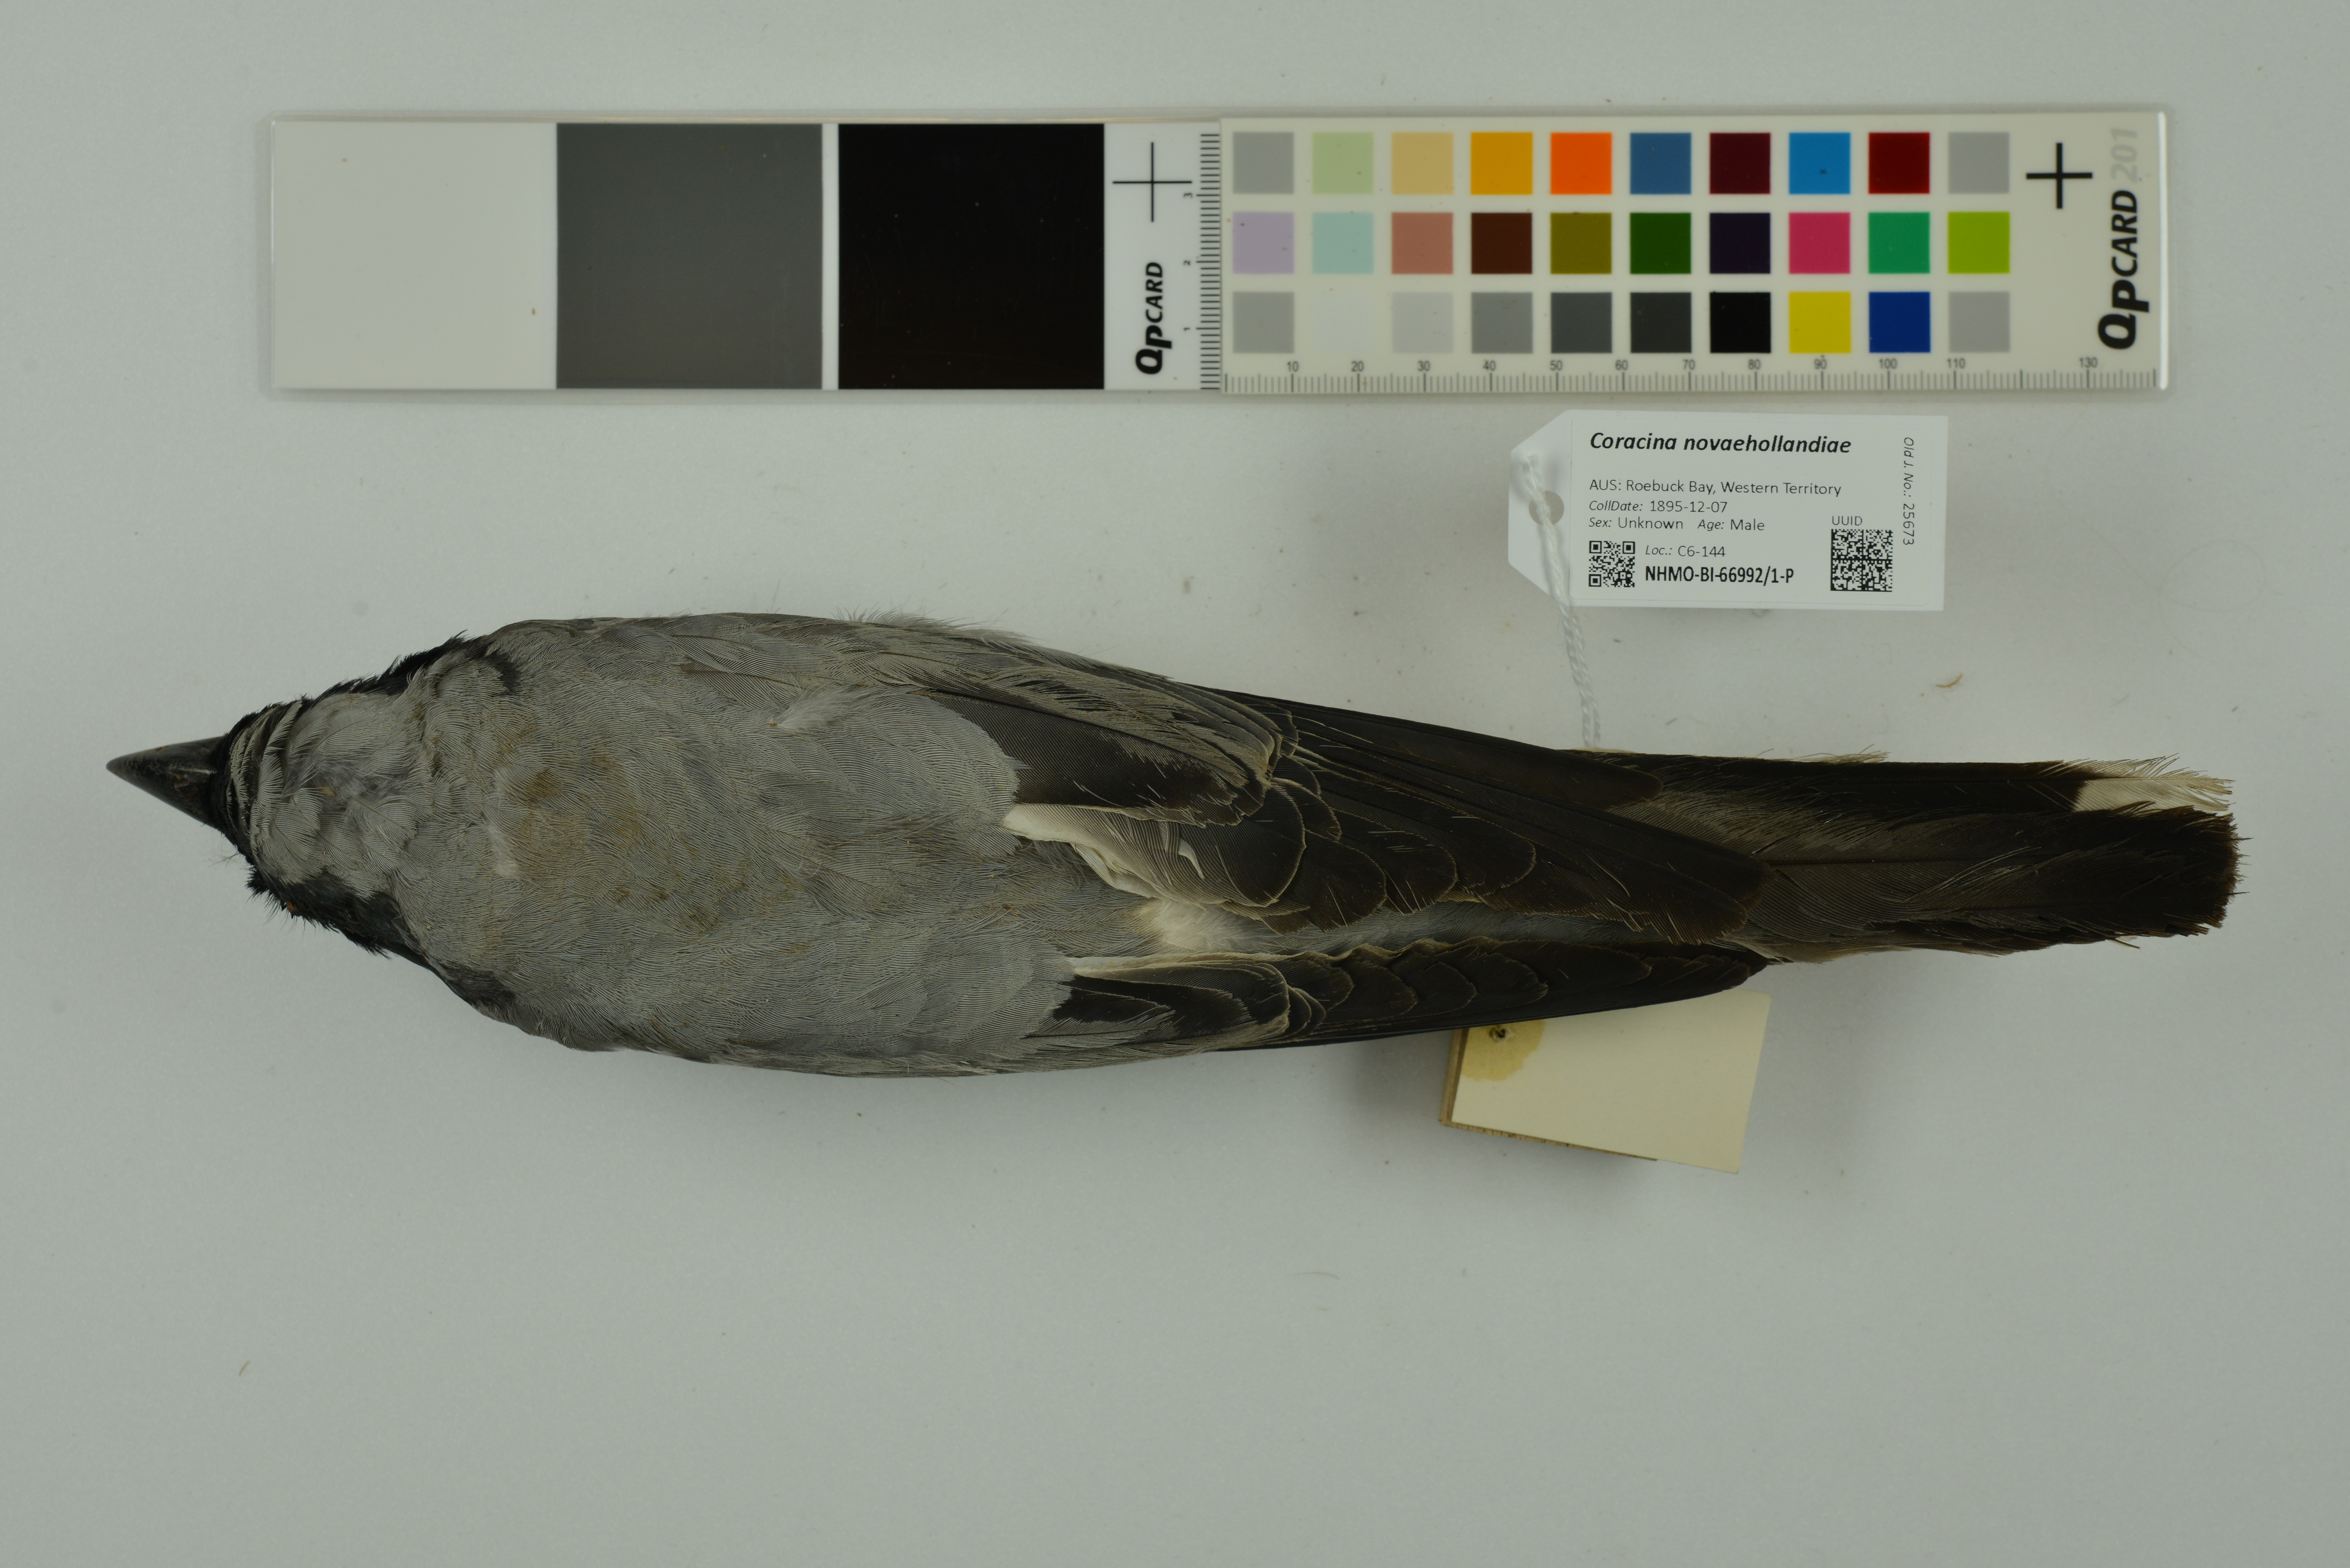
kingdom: Animalia
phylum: Chordata
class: Aves
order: Passeriformes
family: Campephagidae
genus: Coracina
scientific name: Coracina novaehollandiae
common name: Black-faced cuckooshrike
